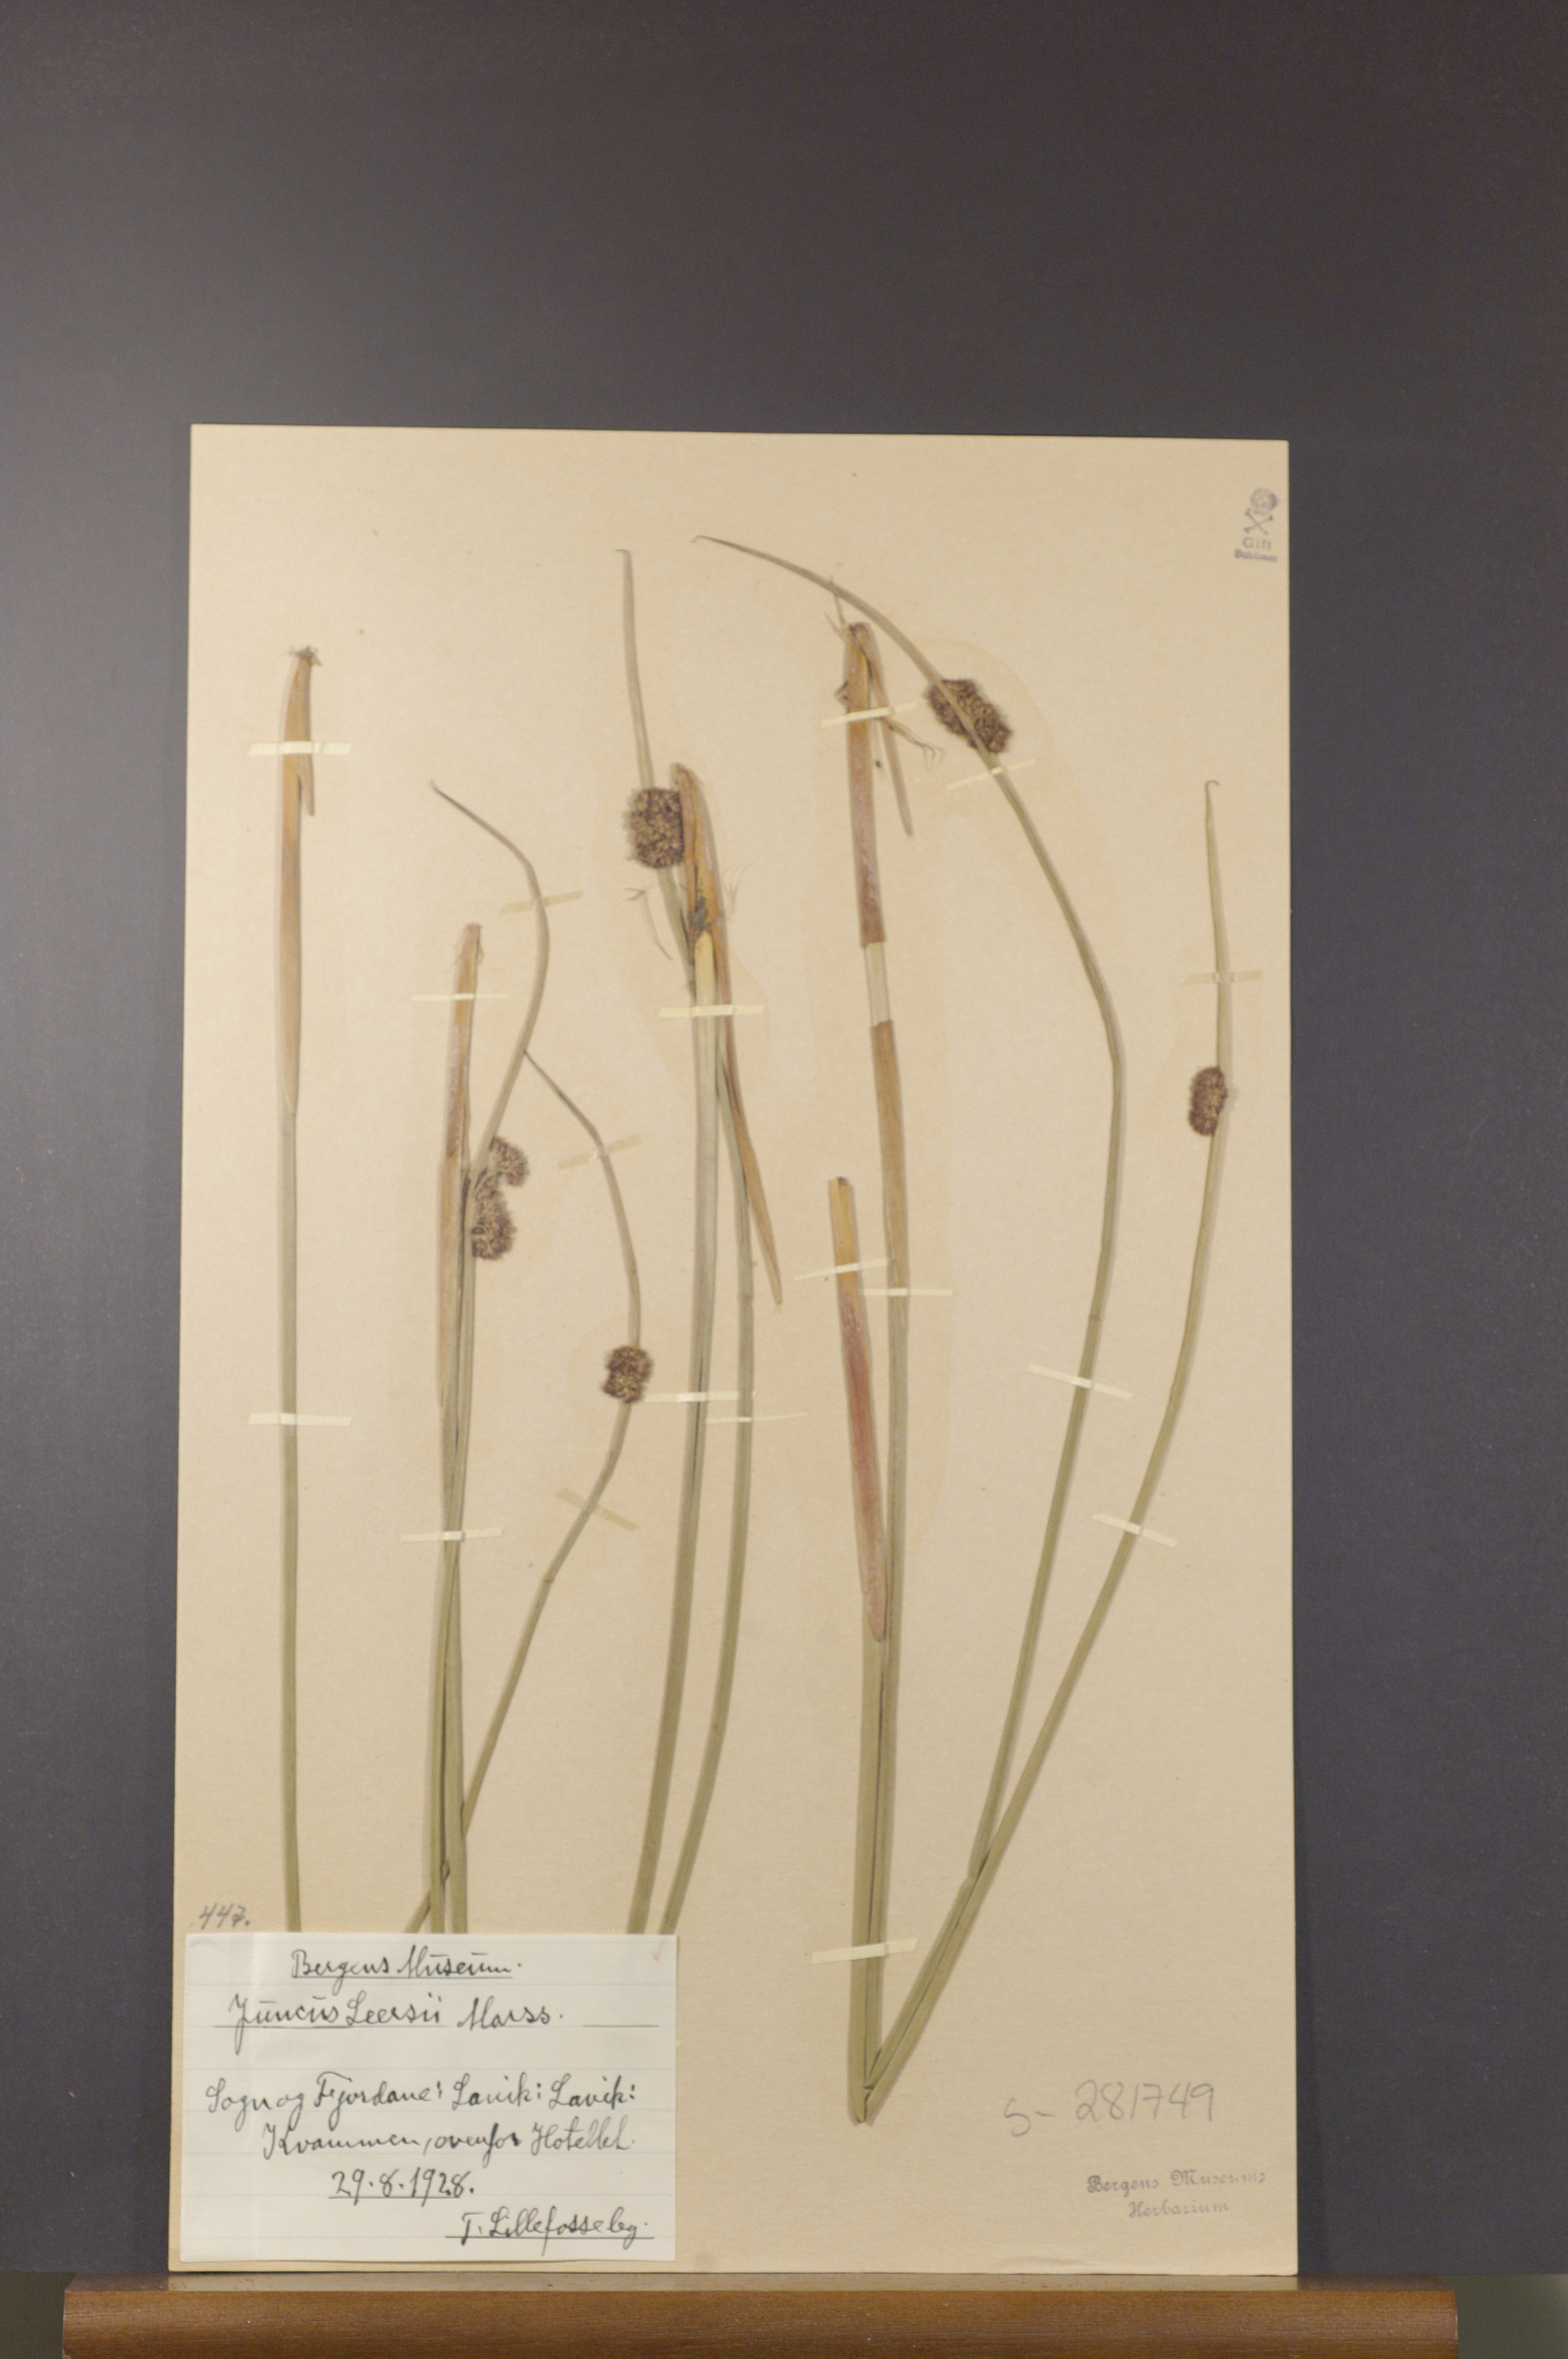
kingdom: Plantae
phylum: Tracheophyta
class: Liliopsida
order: Poales
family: Juncaceae
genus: Juncus
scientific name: Juncus conglomeratus
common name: Compact rush
